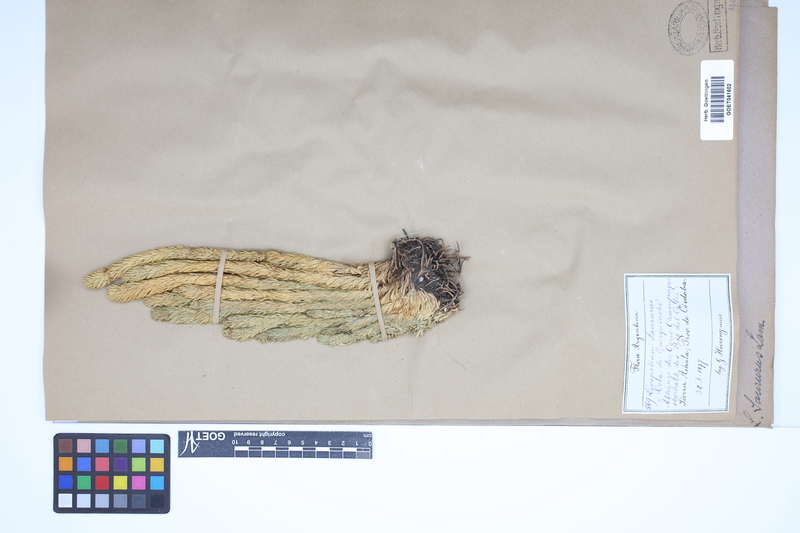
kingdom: Plantae
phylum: Tracheophyta
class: Lycopodiopsida
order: Lycopodiales
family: Lycopodiaceae
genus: Phlegmariurus
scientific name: Phlegmariurus saururus
